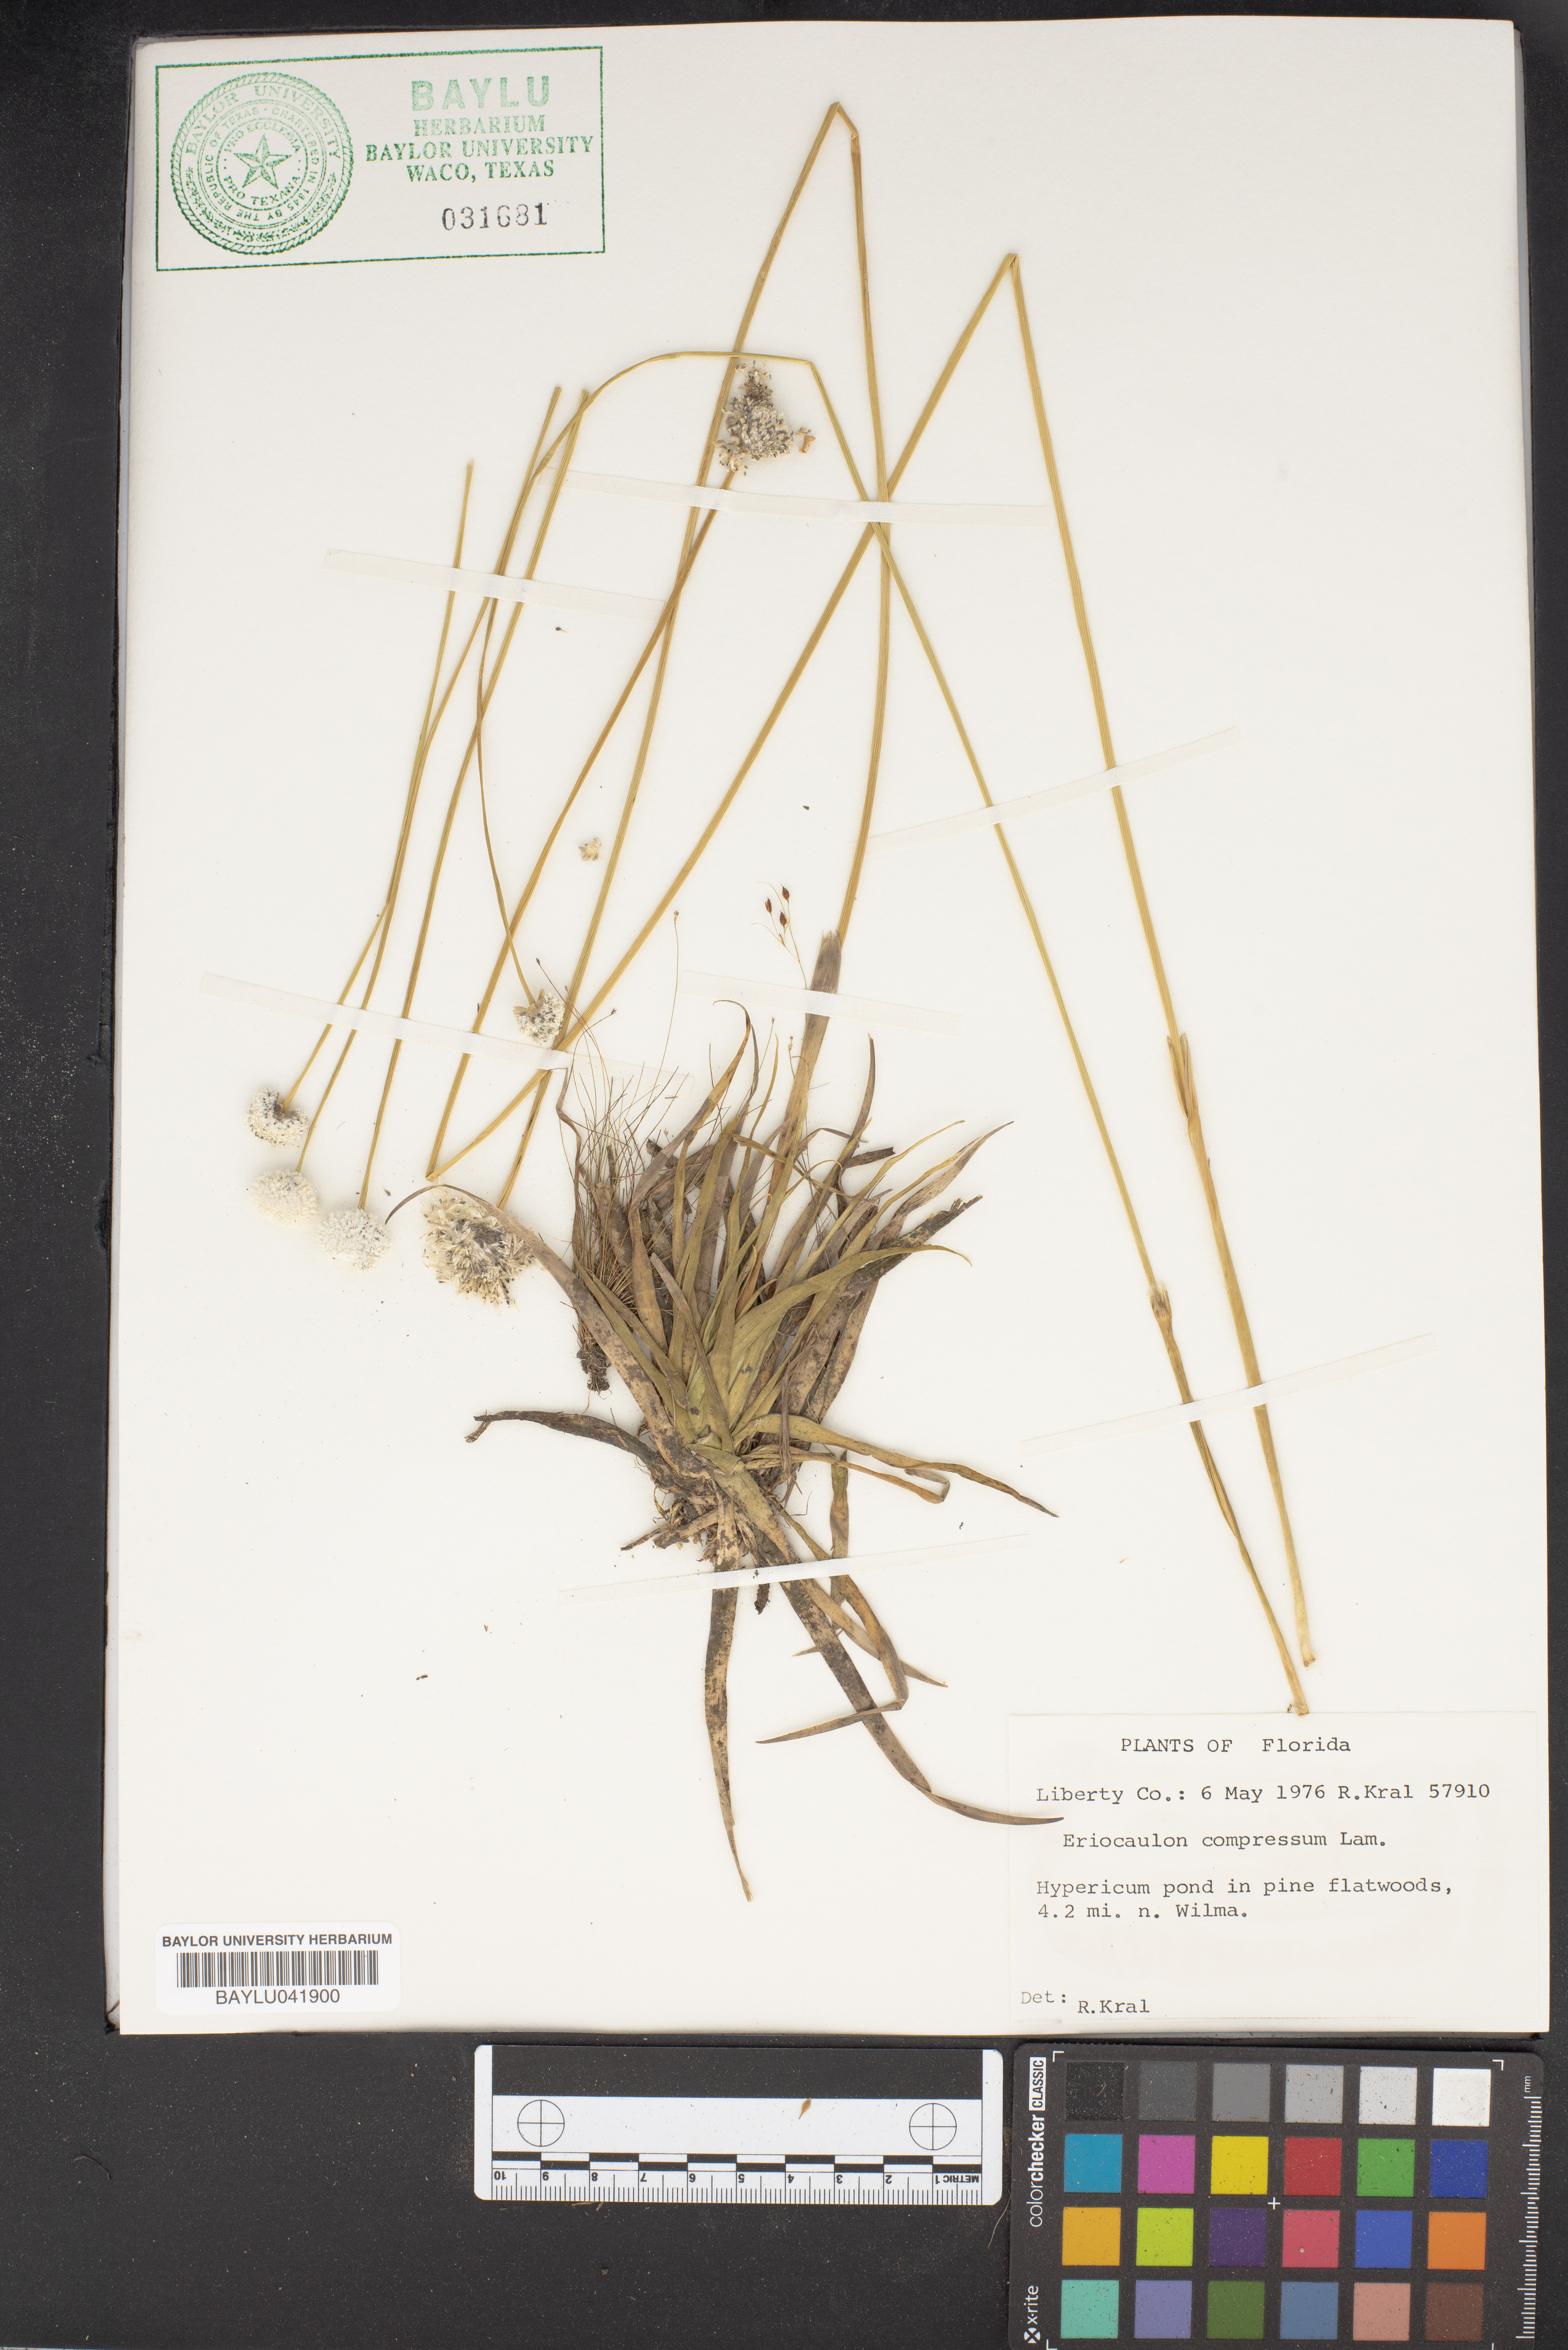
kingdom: Plantae
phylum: Tracheophyta
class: Liliopsida
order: Poales
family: Eriocaulaceae
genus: Eriocaulon
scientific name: Eriocaulon compressum
